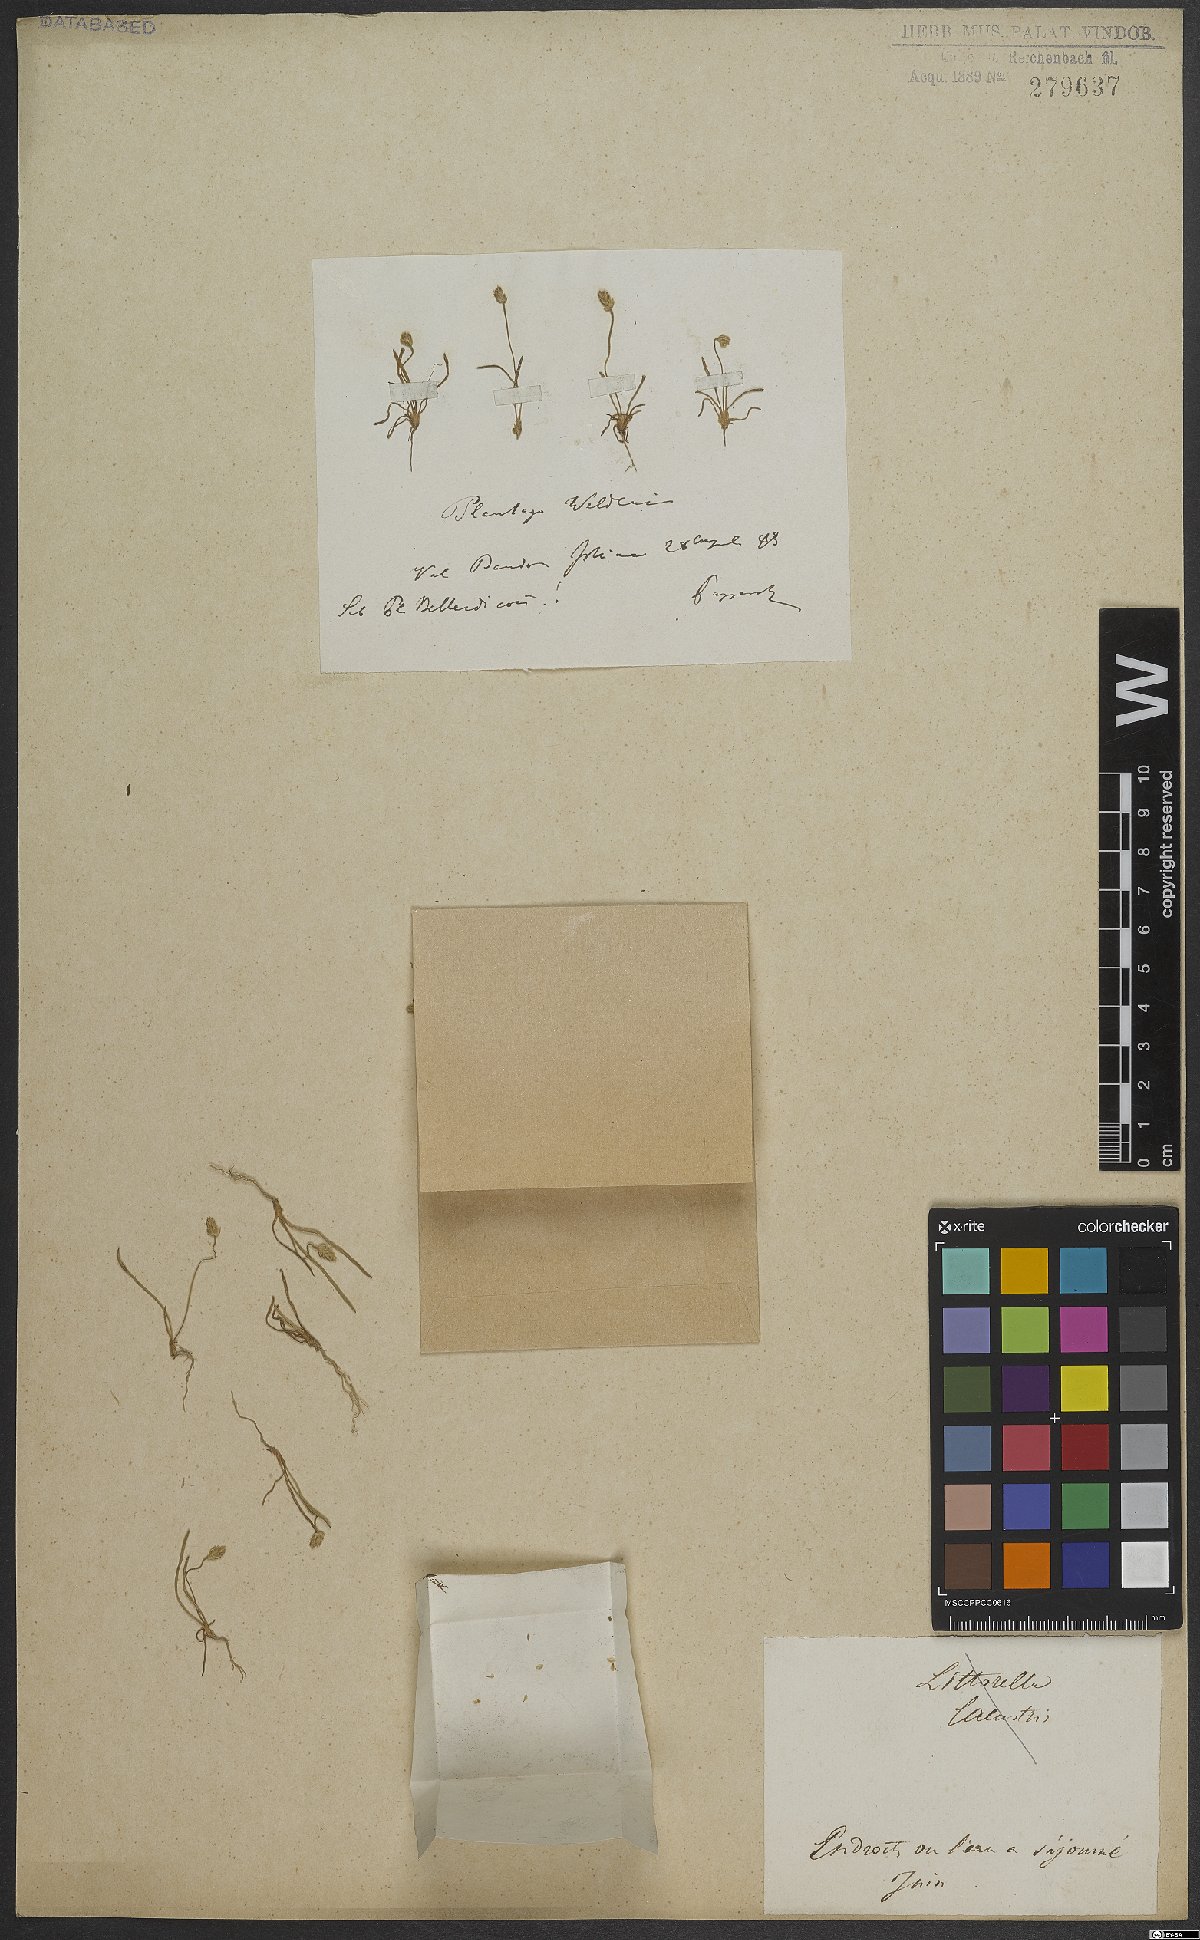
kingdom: Plantae
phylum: Tracheophyta
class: Magnoliopsida
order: Lamiales
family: Plantaginaceae
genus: Plantago
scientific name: Plantago weldenii
